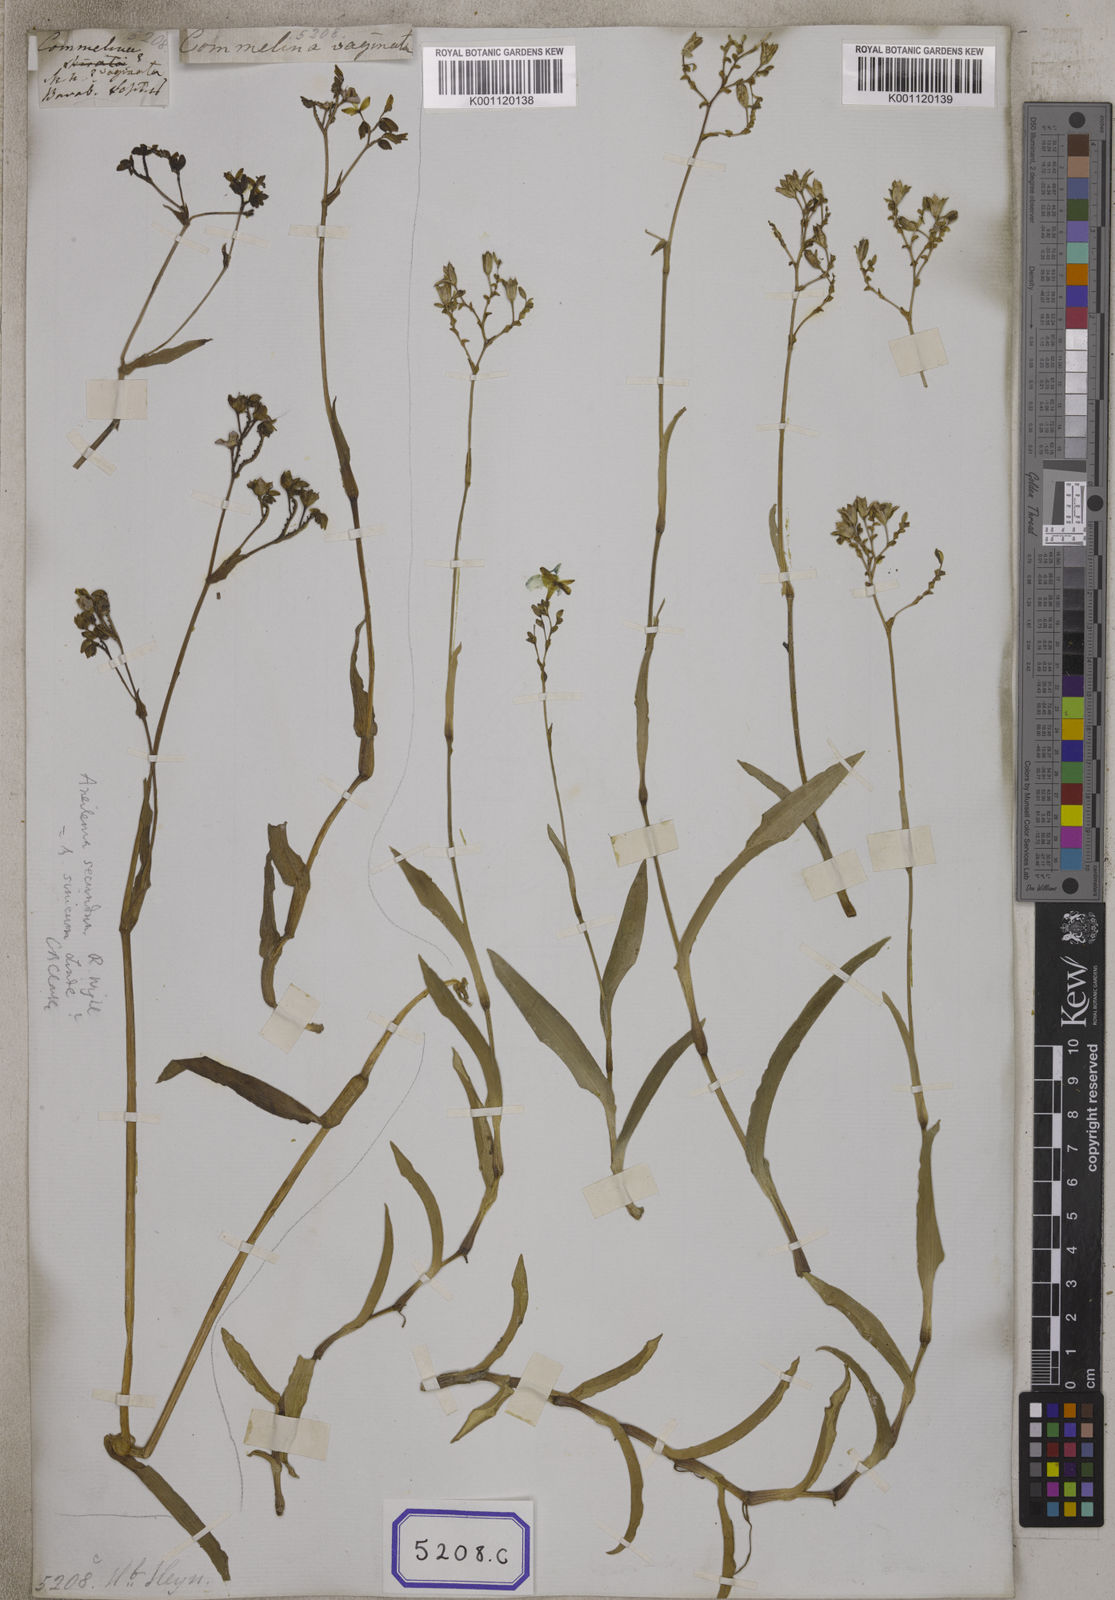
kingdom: Plantae
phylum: Tracheophyta
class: Liliopsida
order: Commelinales
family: Commelinaceae
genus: Aneilema
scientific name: Aneilema
